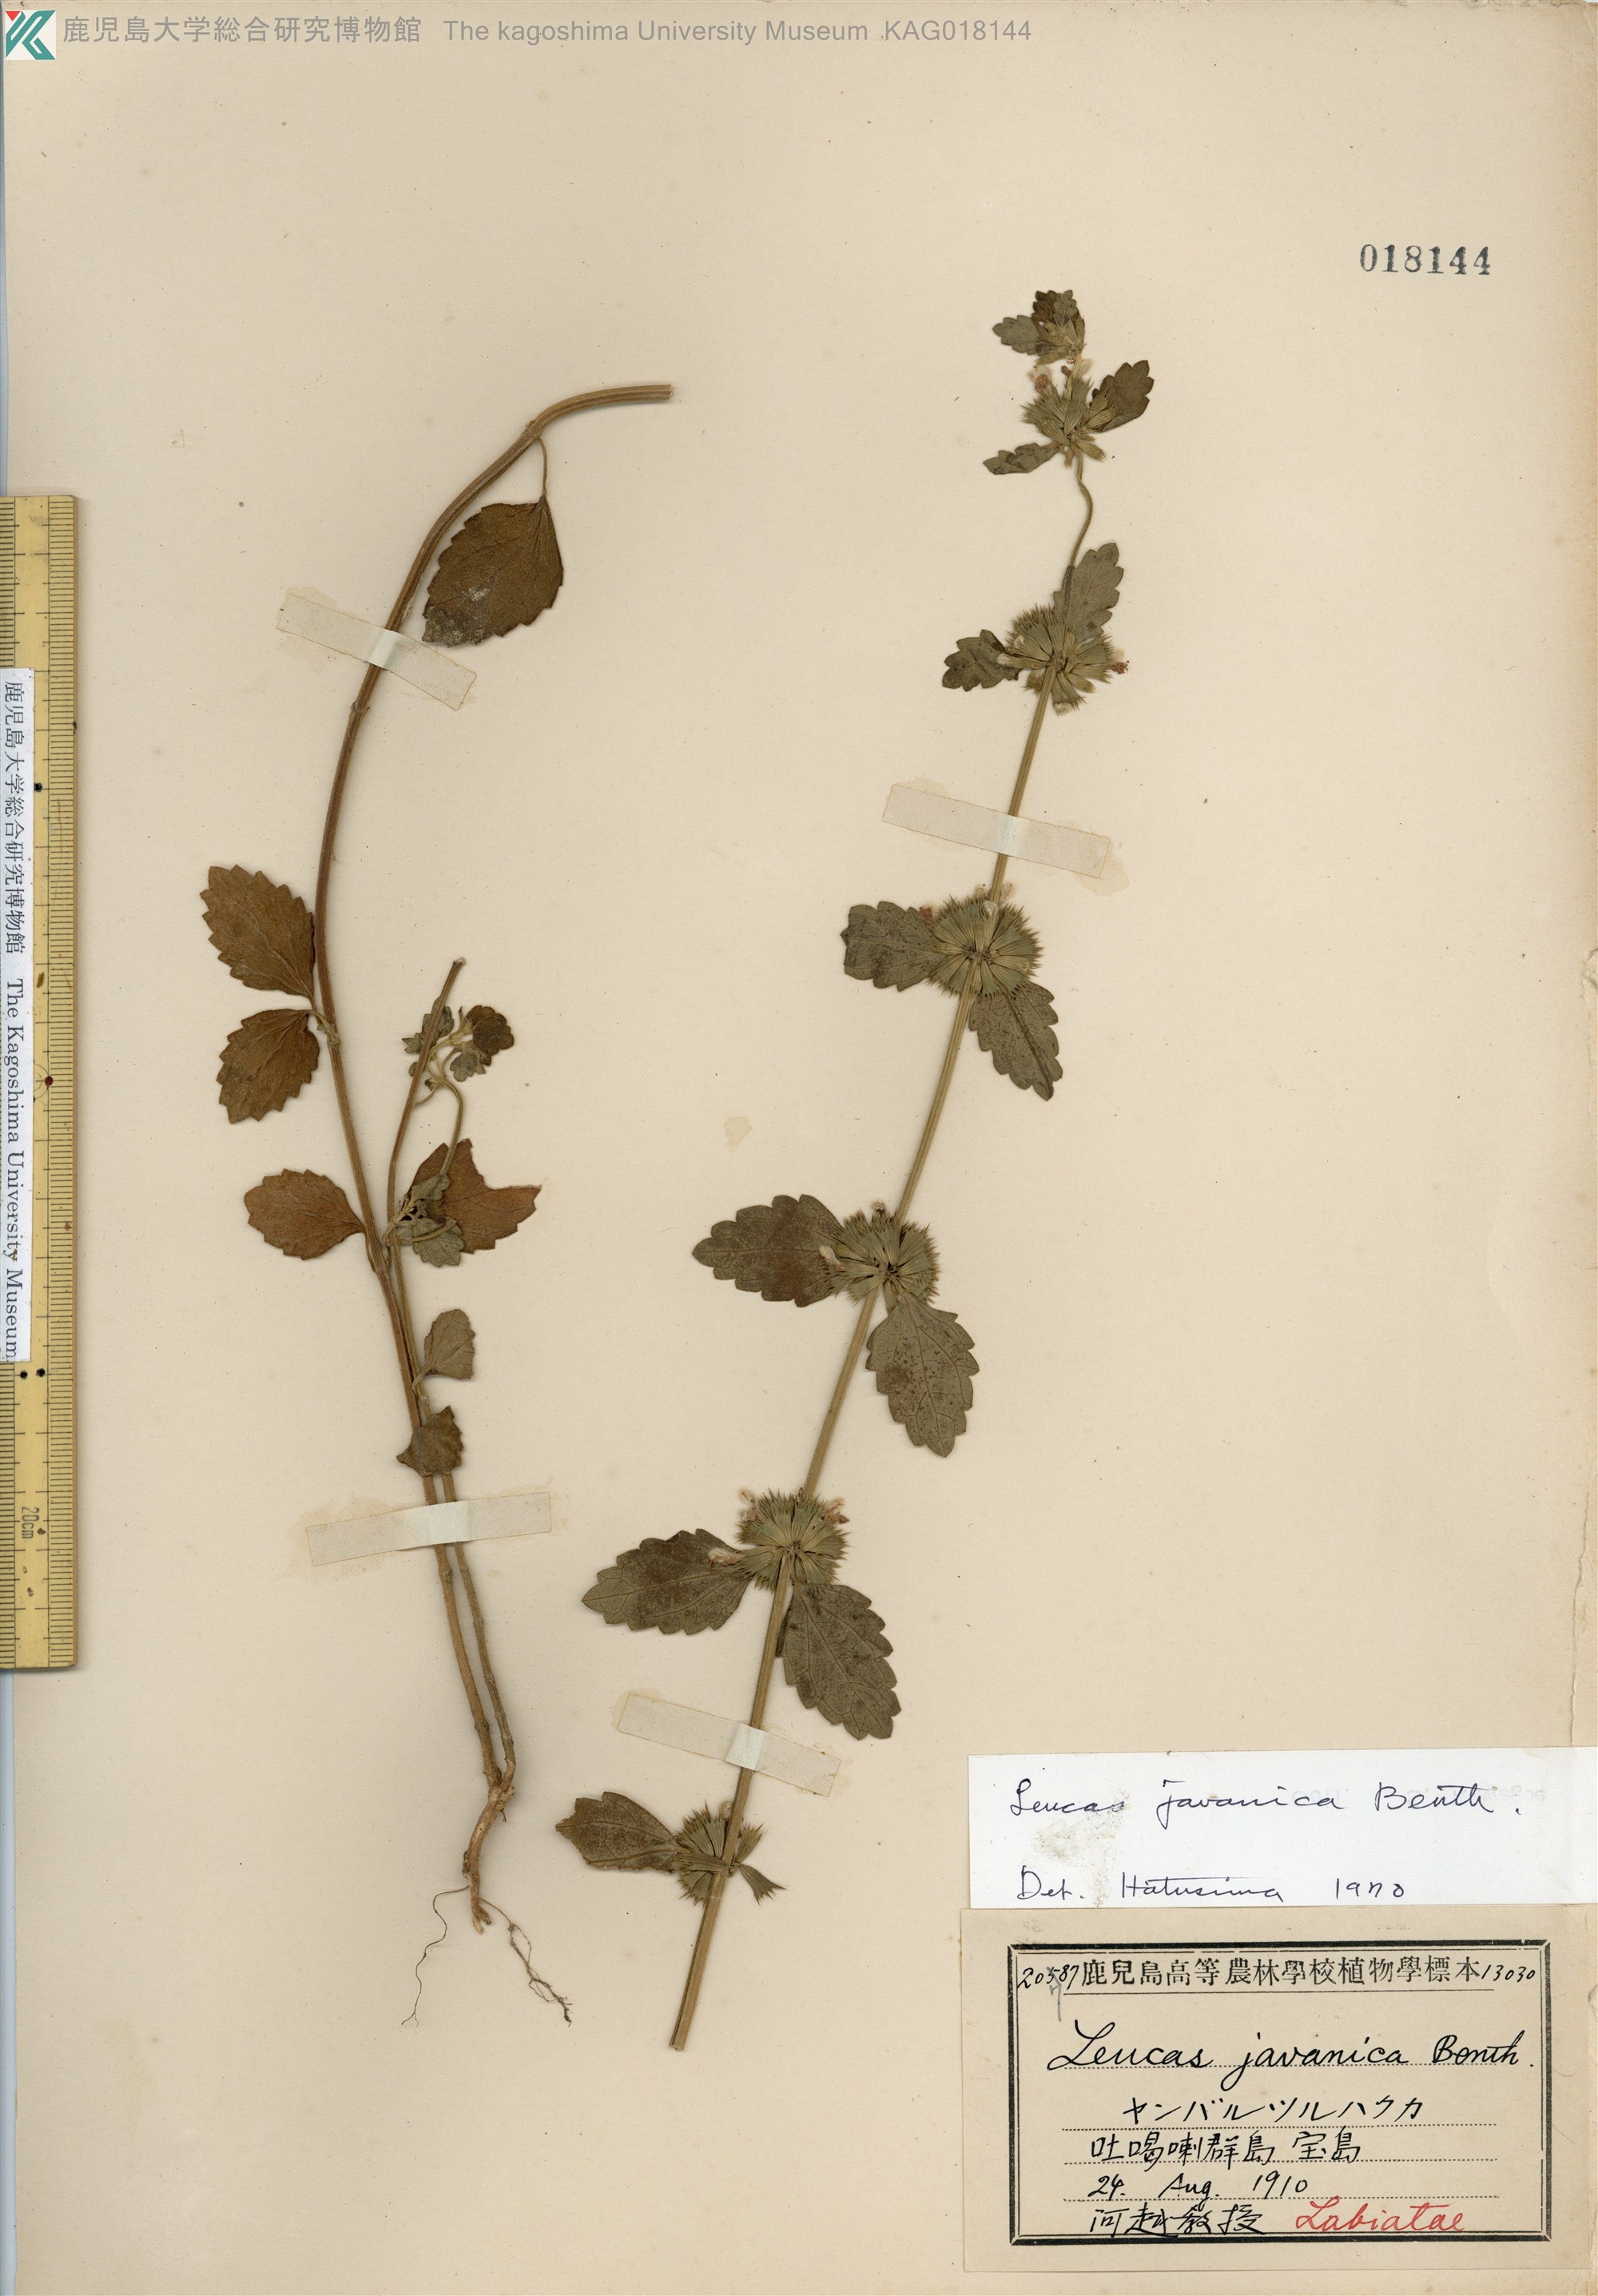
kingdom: Plantae
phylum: Tracheophyta
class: Magnoliopsida
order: Lamiales
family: Lamiaceae
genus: Leucas
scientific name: Leucas chinensis
